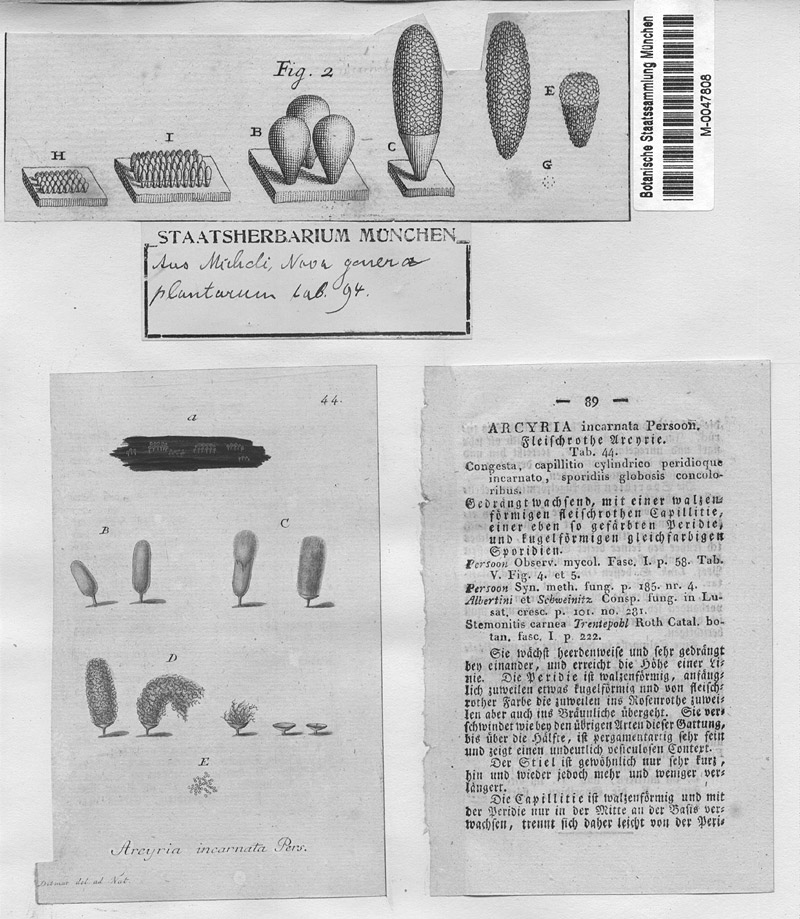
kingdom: Protozoa
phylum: Mycetozoa
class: Myxomycetes
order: Trichiales
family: Arcyriaceae
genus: Arcyria
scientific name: Arcyria incarnata
